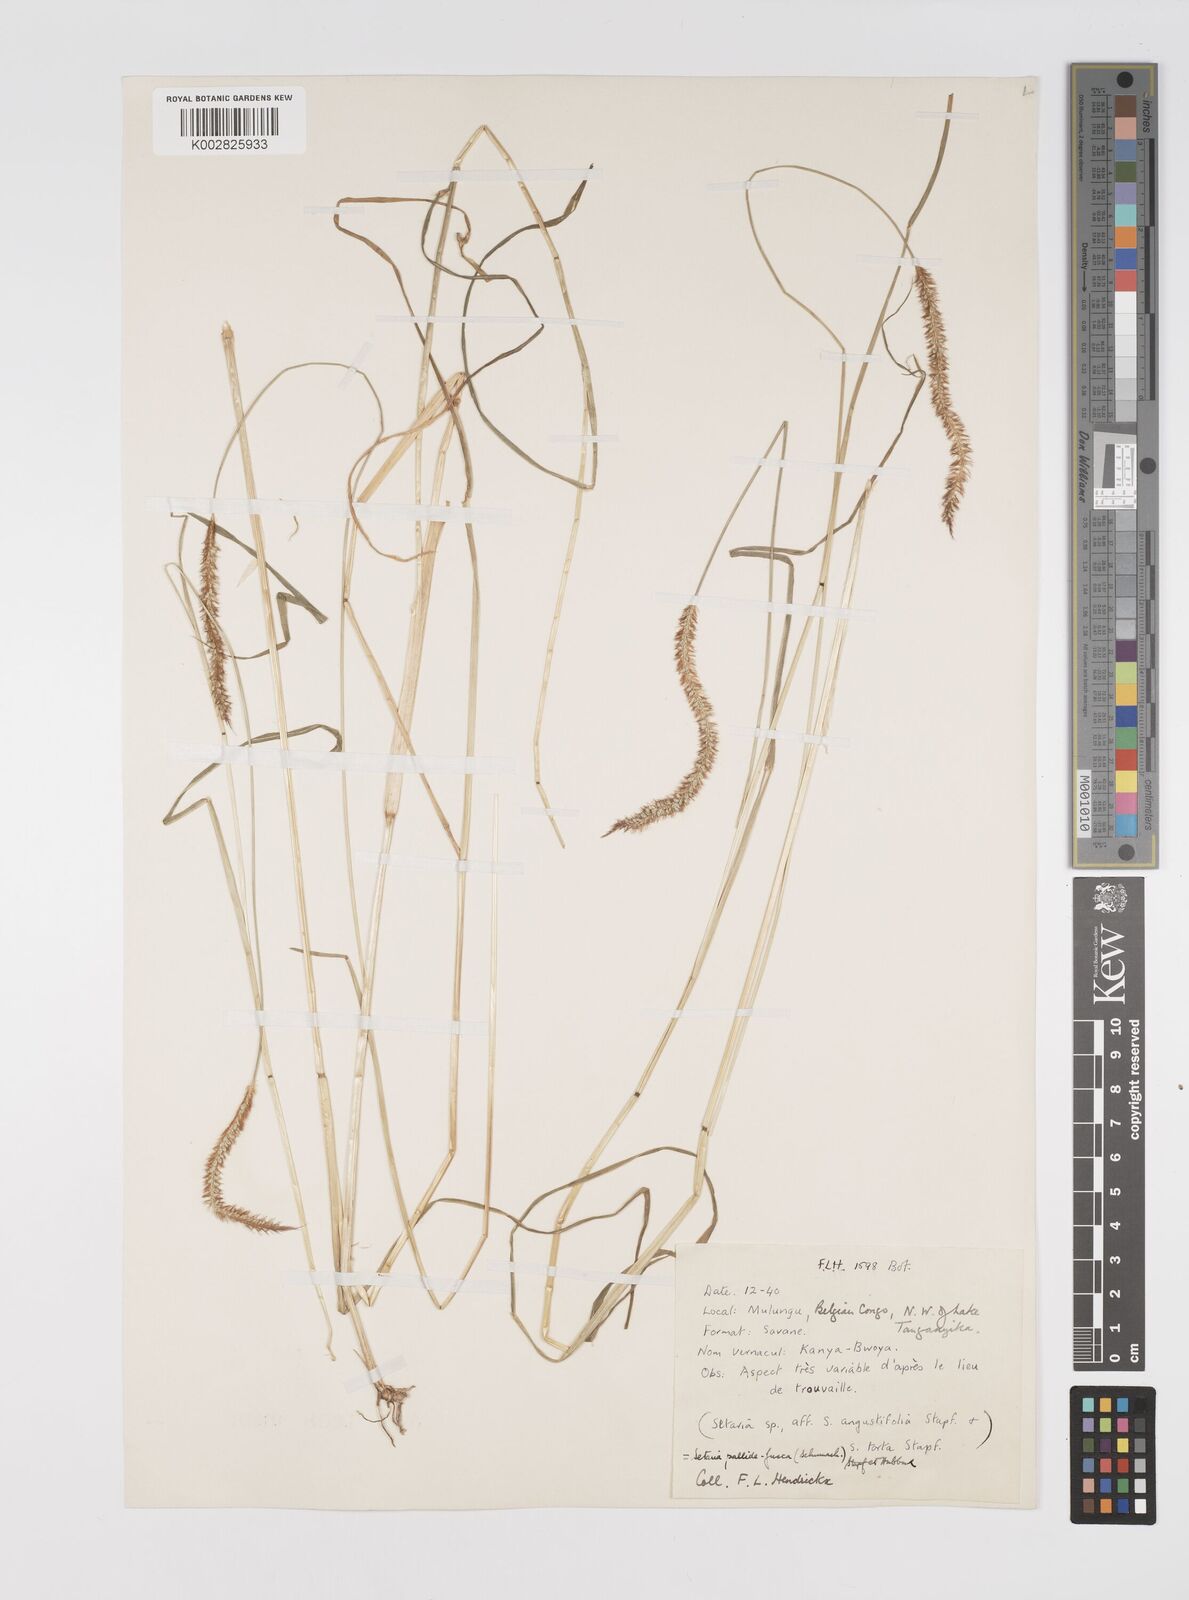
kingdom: Plantae
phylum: Tracheophyta
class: Liliopsida
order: Poales
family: Poaceae
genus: Setaria
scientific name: Setaria pumila
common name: Yellow bristle-grass
